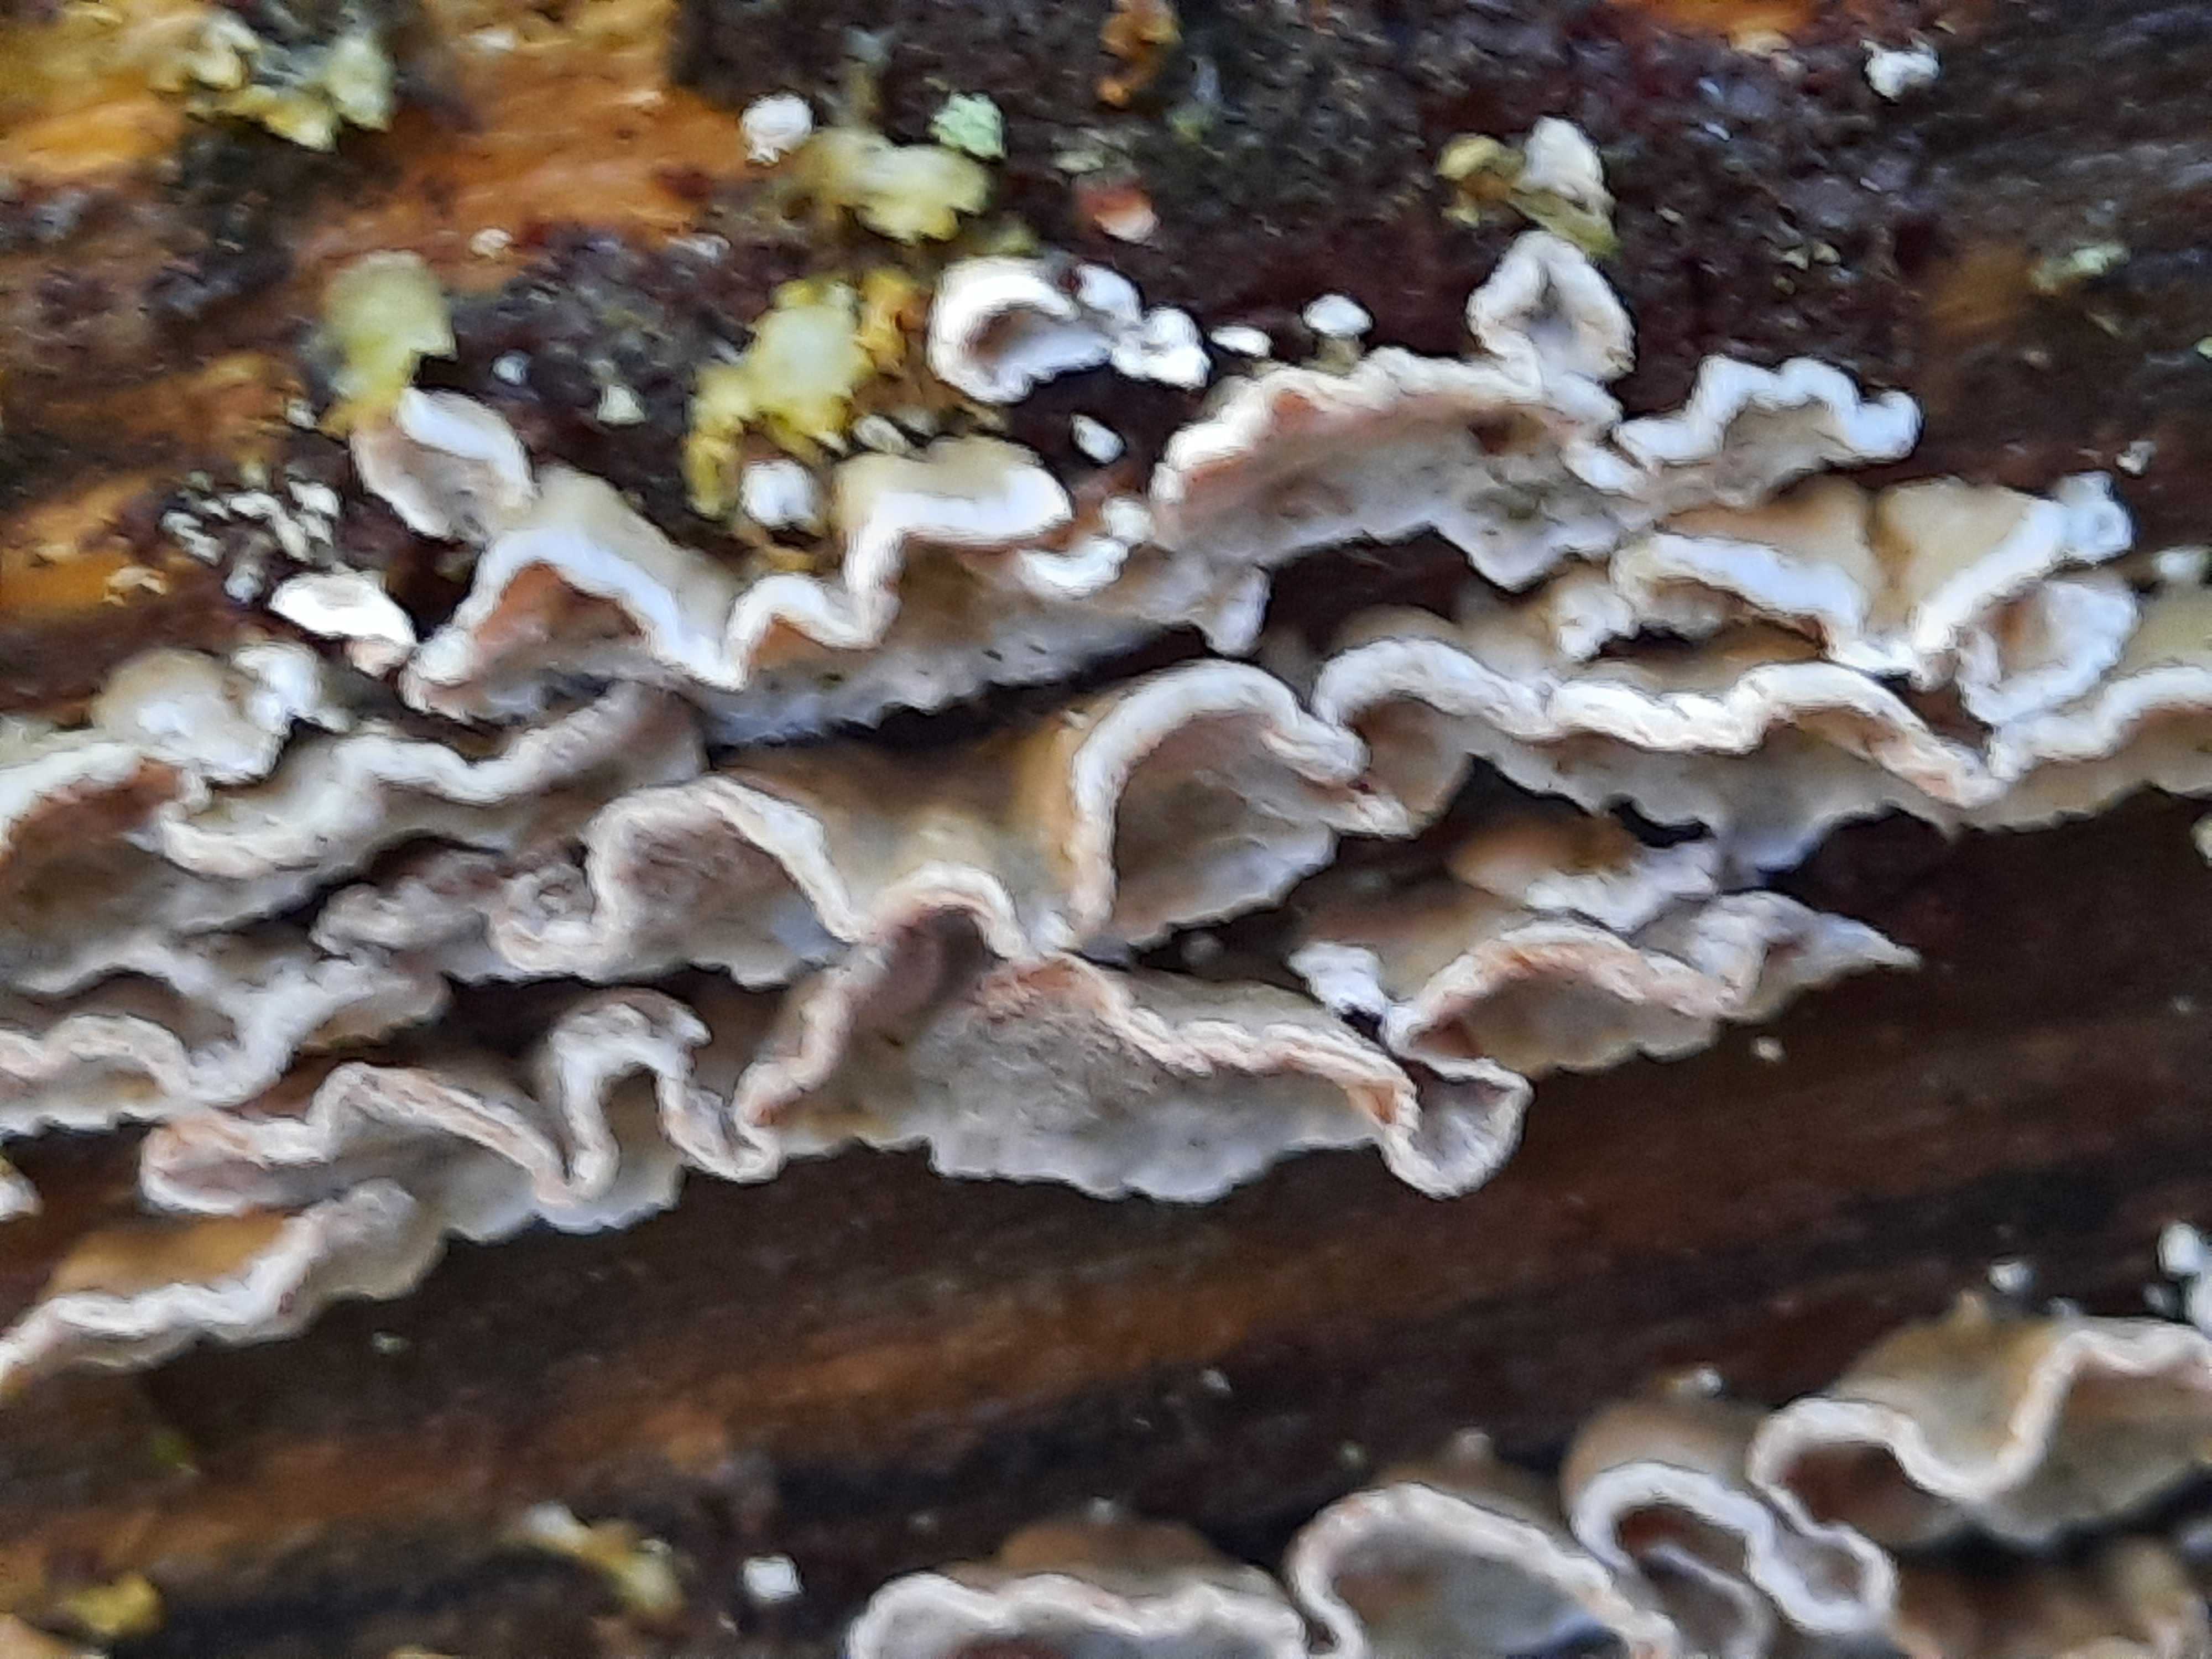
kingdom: Fungi
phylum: Basidiomycota
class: Agaricomycetes
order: Polyporales
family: Incrustoporiaceae
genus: Skeletocutis
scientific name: Skeletocutis carneogrisea
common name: rødgrå krystalporesvamp
